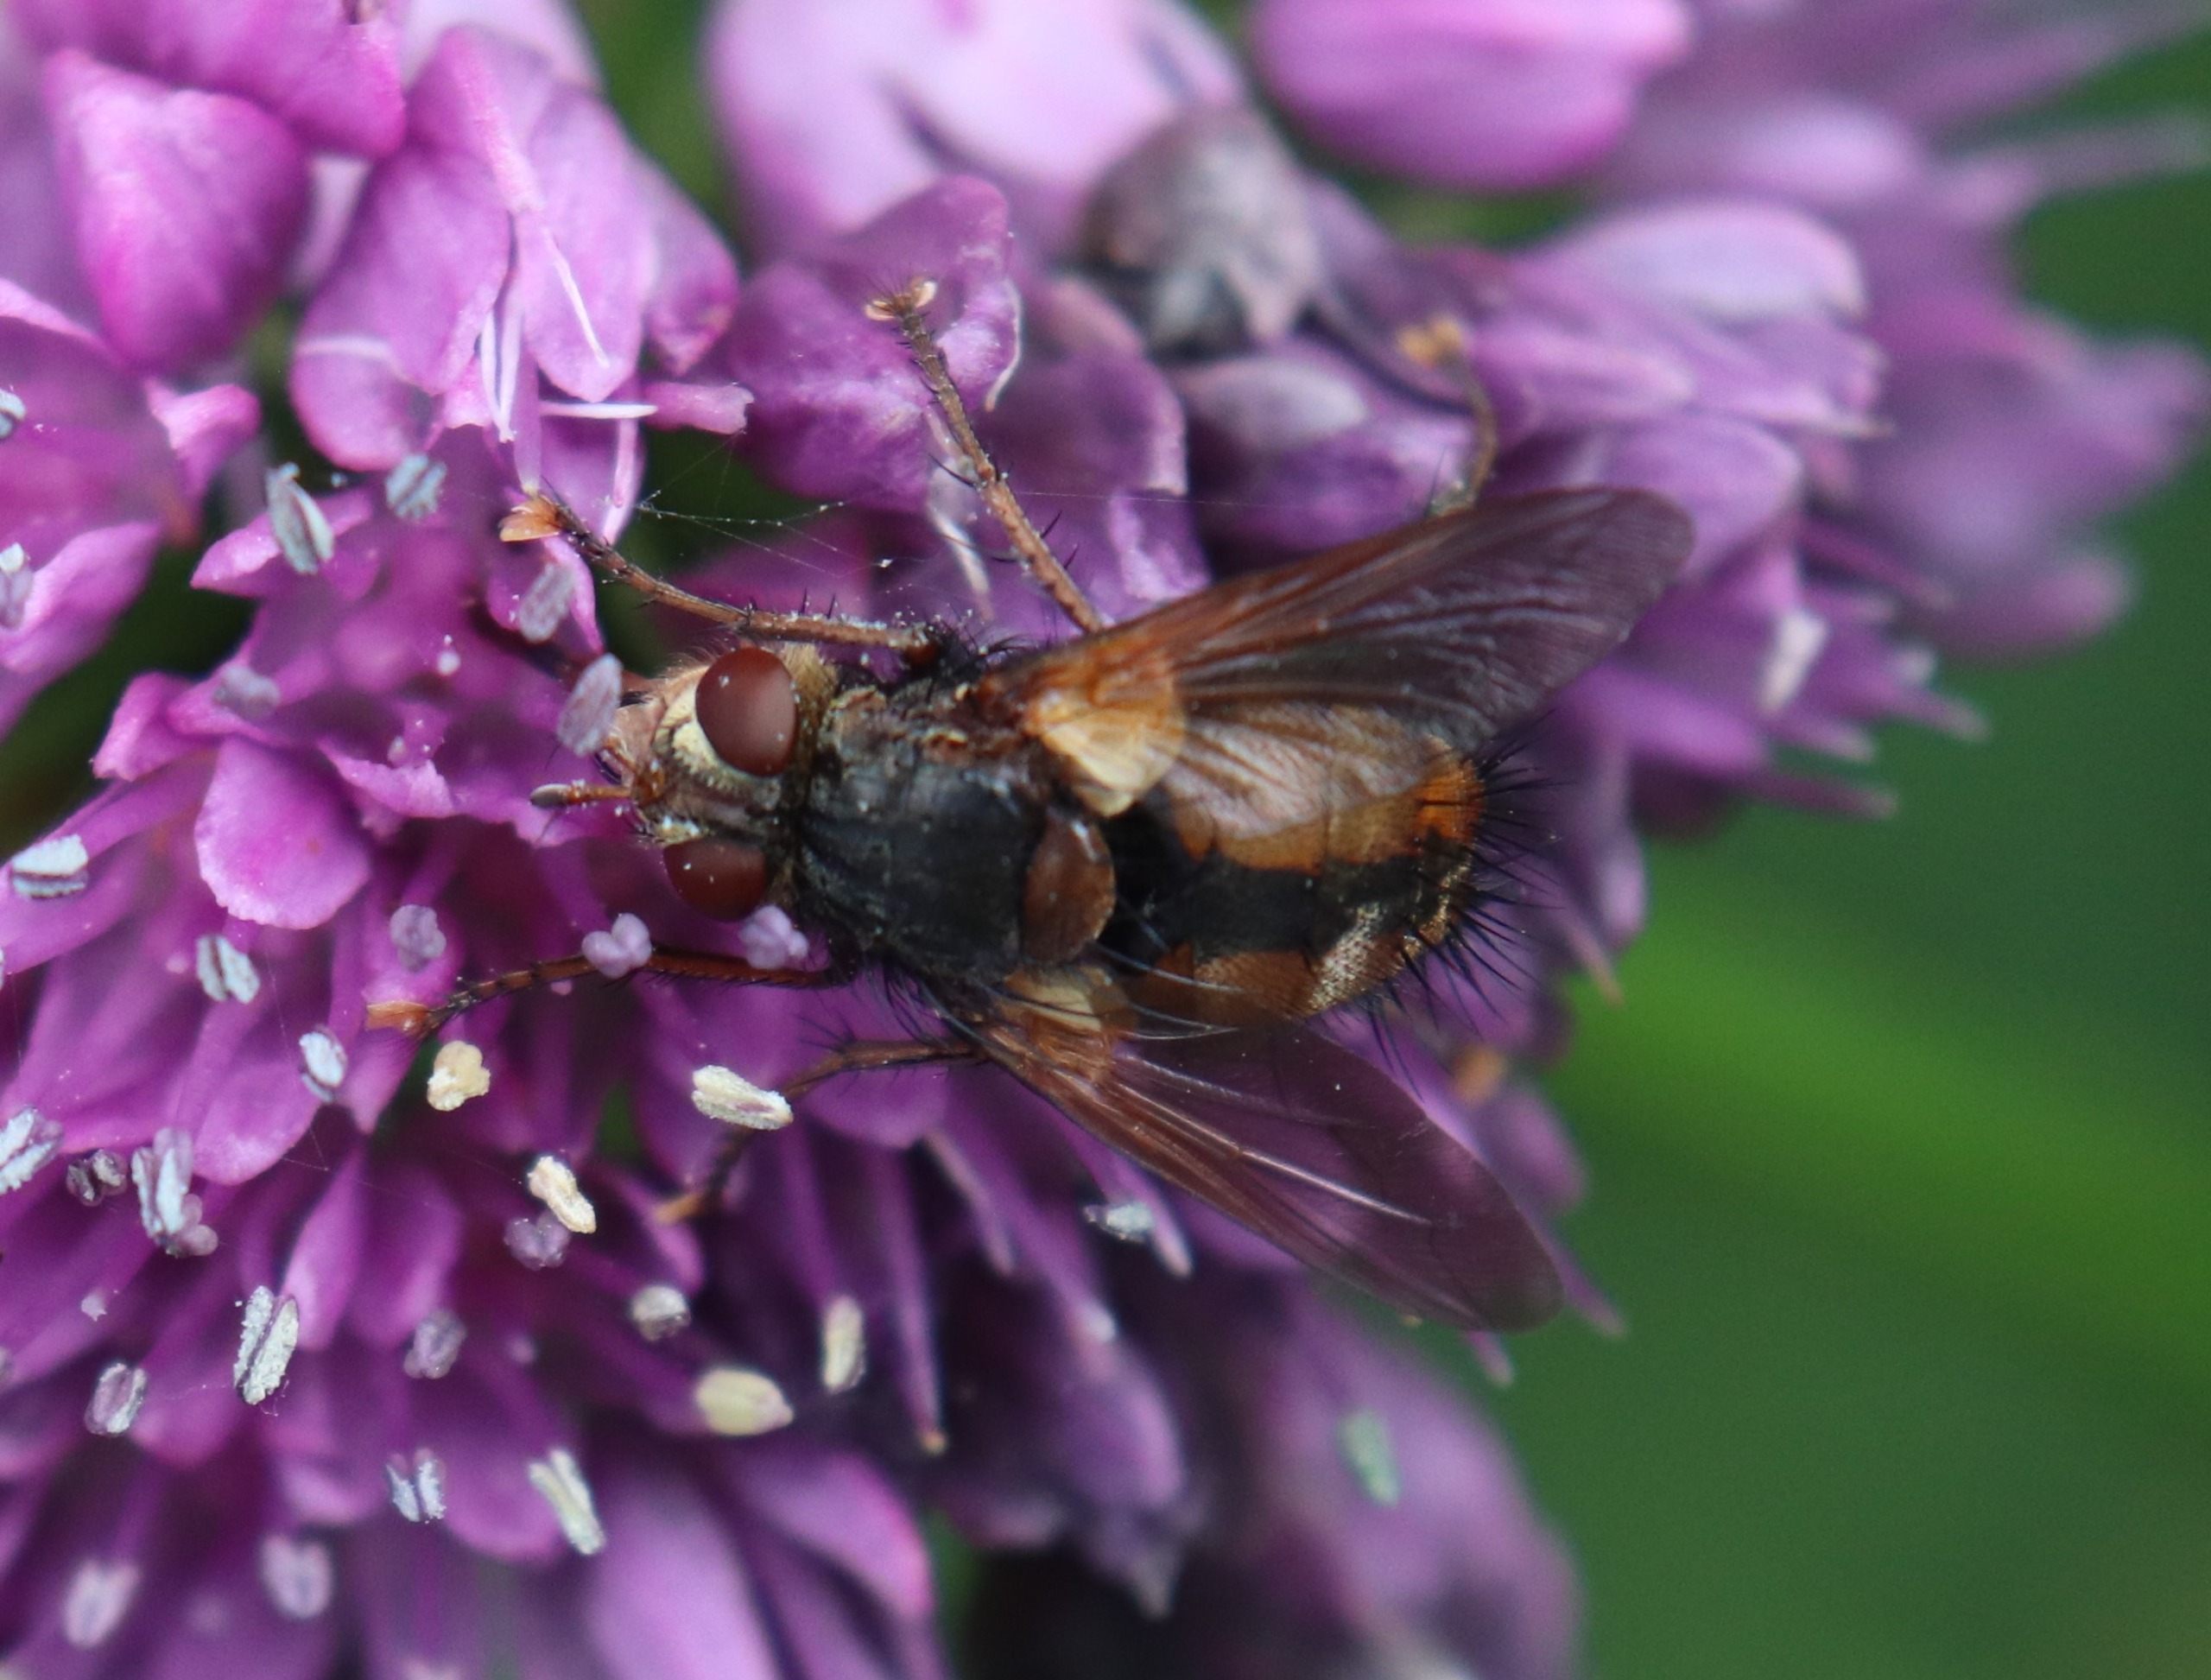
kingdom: Animalia
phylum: Arthropoda
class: Insecta
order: Diptera
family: Tachinidae
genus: Tachina
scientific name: Tachina fera
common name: Mellemfluen oskar
